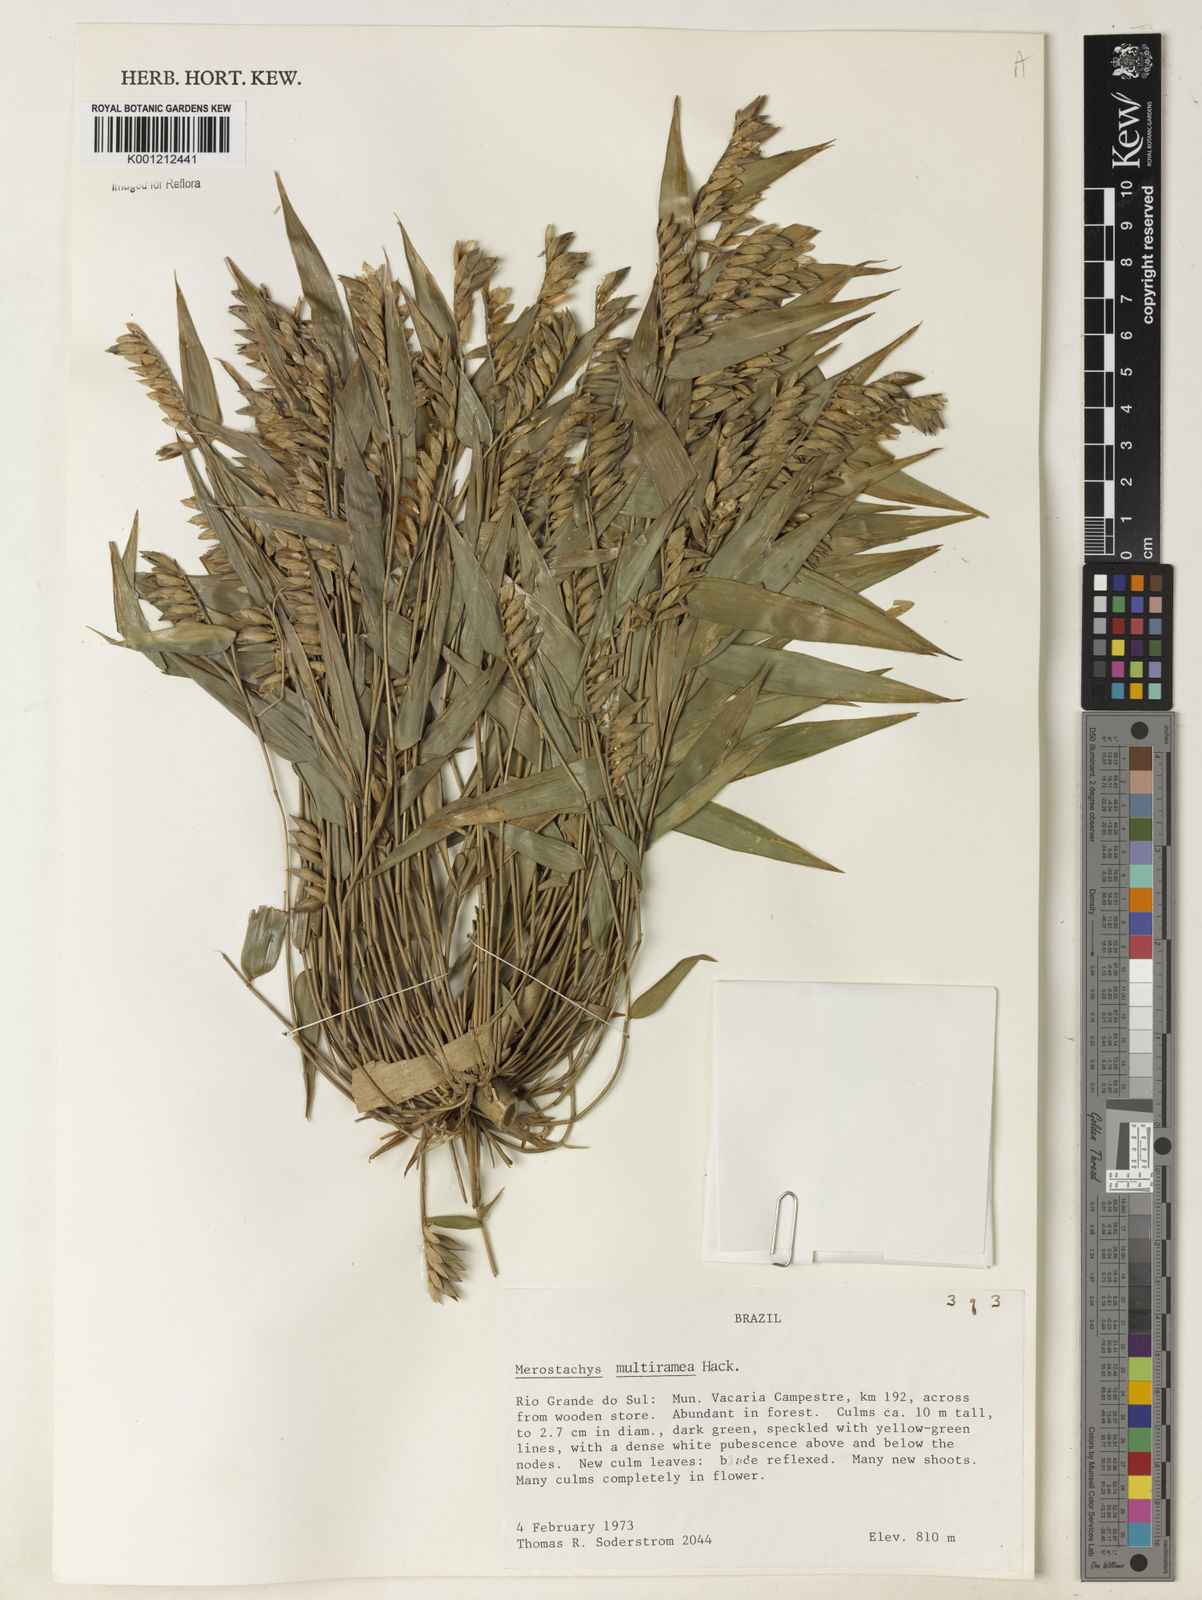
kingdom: Plantae
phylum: Tracheophyta
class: Liliopsida
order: Poales
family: Poaceae
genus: Merostachys
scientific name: Merostachys multiramea
